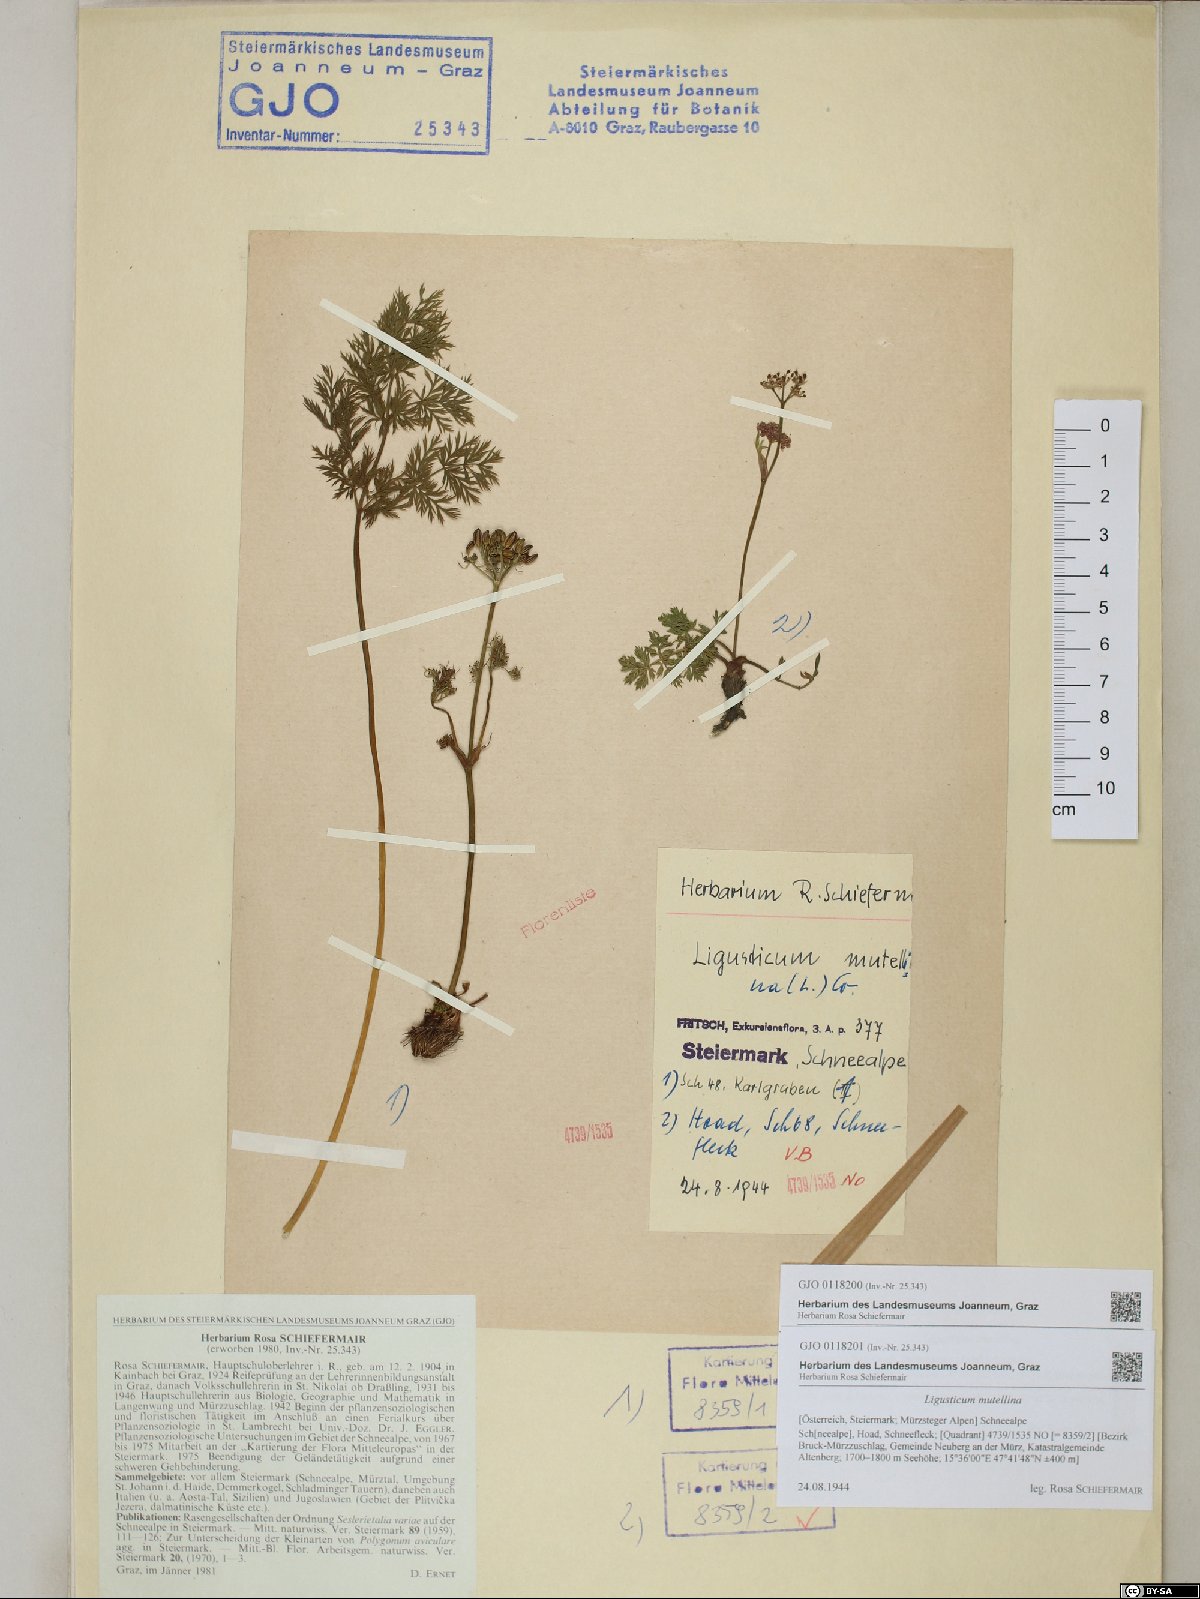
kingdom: Plantae
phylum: Tracheophyta
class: Magnoliopsida
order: Apiales
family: Apiaceae
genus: Mutellina
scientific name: Mutellina adonidifolia
